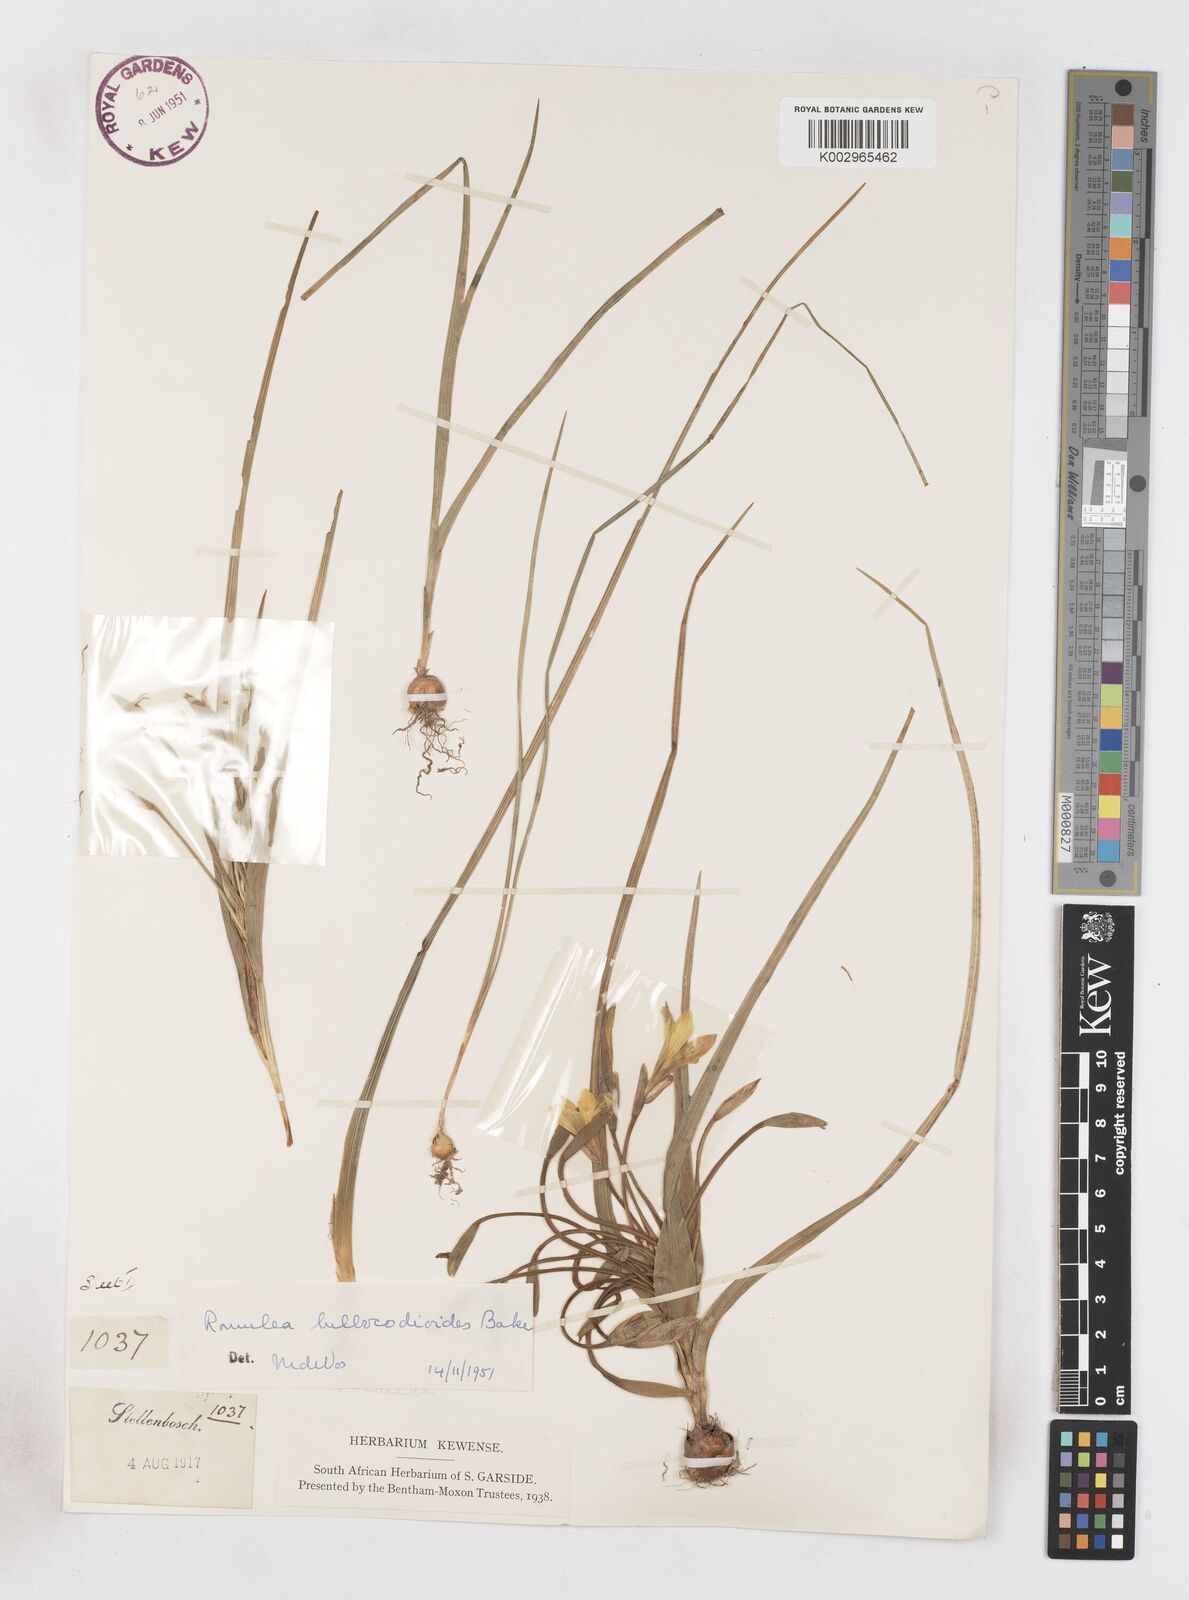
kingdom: Plantae
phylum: Tracheophyta
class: Liliopsida
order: Asparagales
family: Iridaceae
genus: Romulea
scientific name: Romulea flava
